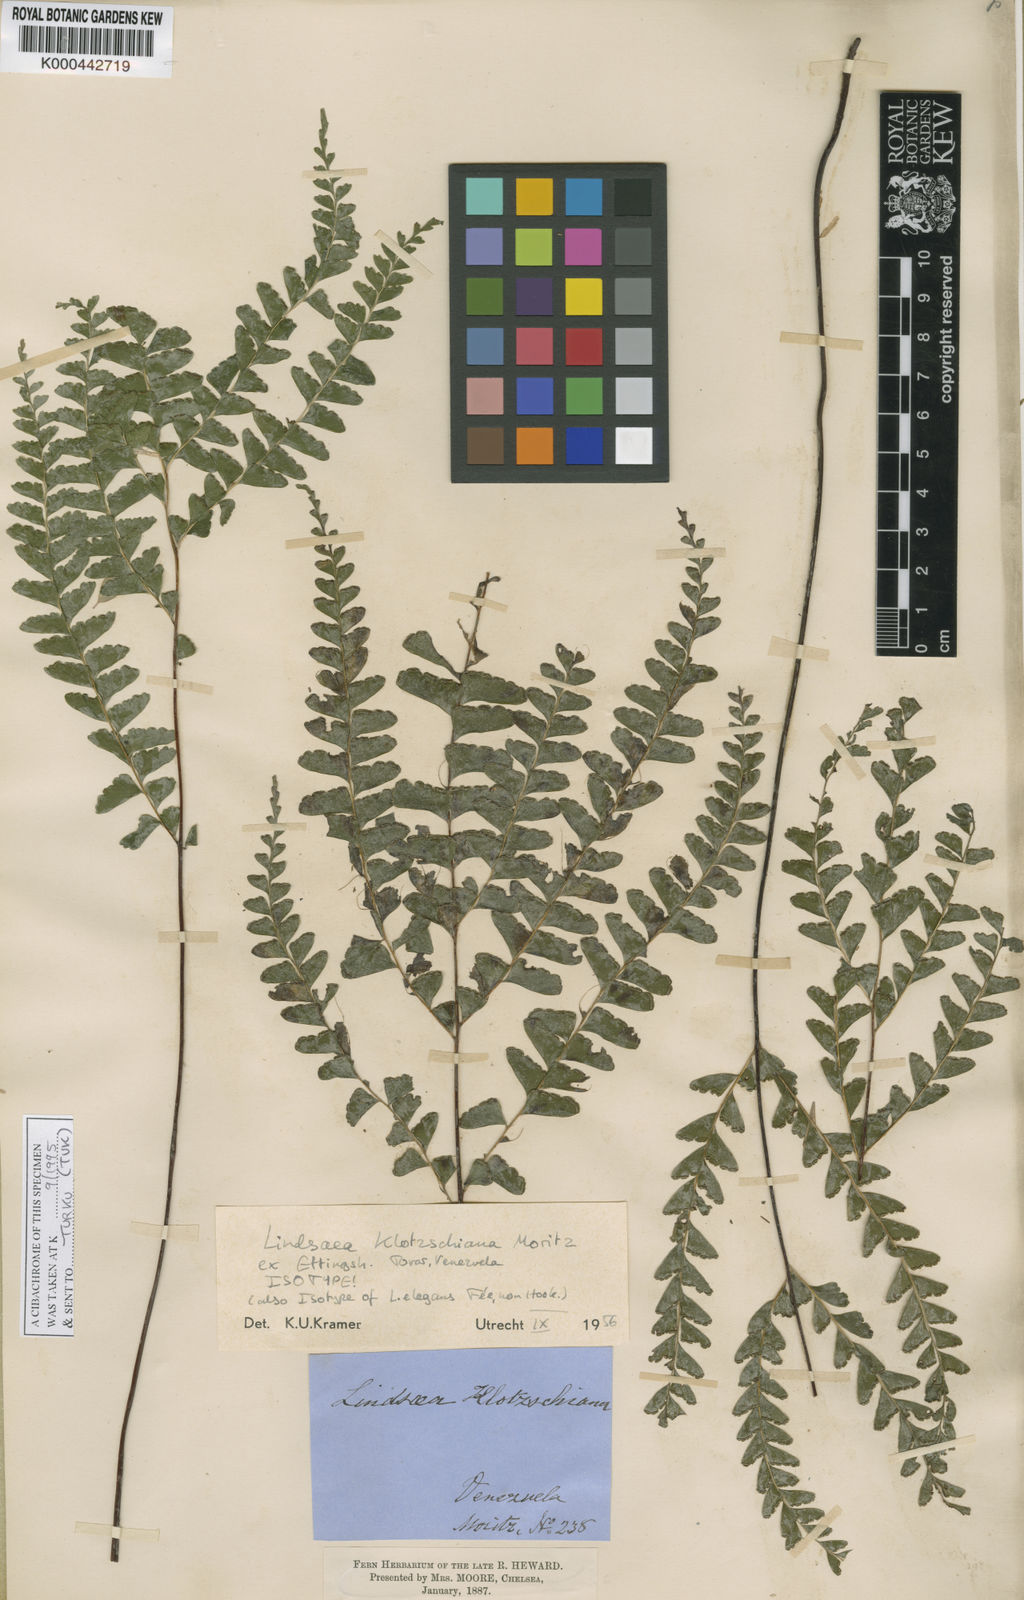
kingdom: Plantae
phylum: Tracheophyta
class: Polypodiopsida
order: Polypodiales
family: Lindsaeaceae
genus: Lindsaea
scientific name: Lindsaea feei
